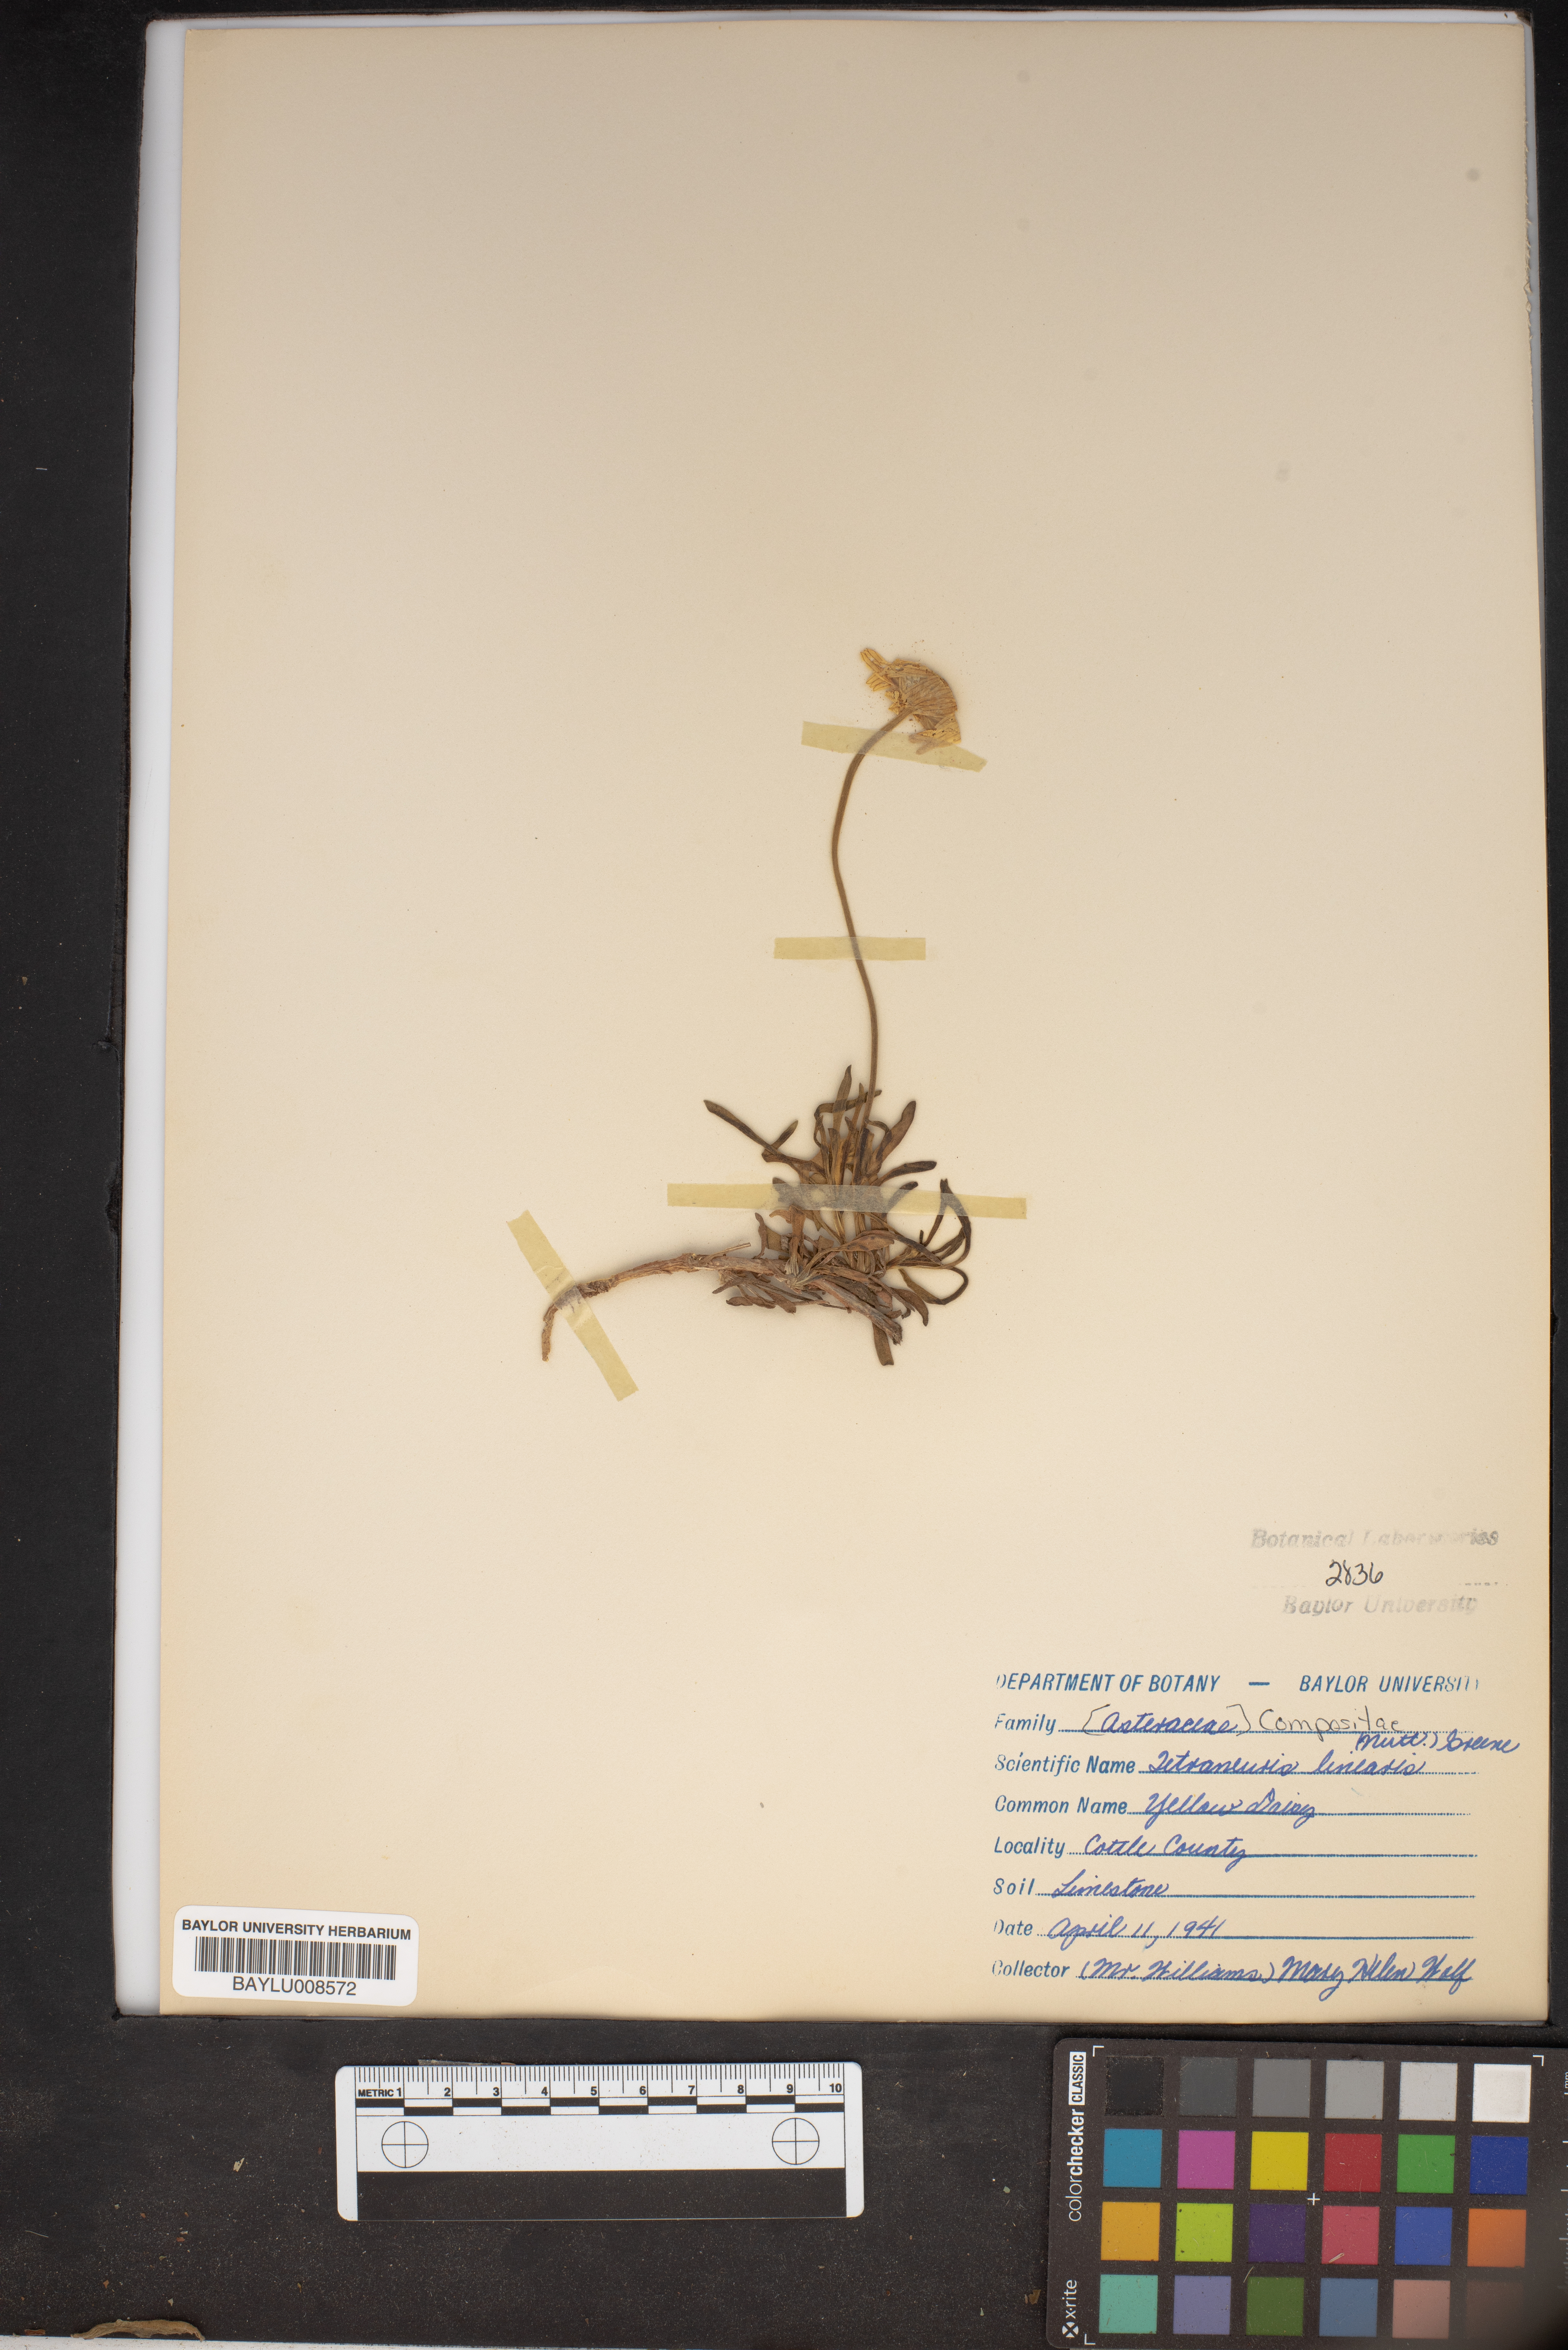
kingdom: Plantae
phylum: Tracheophyta
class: Magnoliopsida
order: Asterales
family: Asteraceae
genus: Tetraneuris
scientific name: Tetraneuris scaposa
